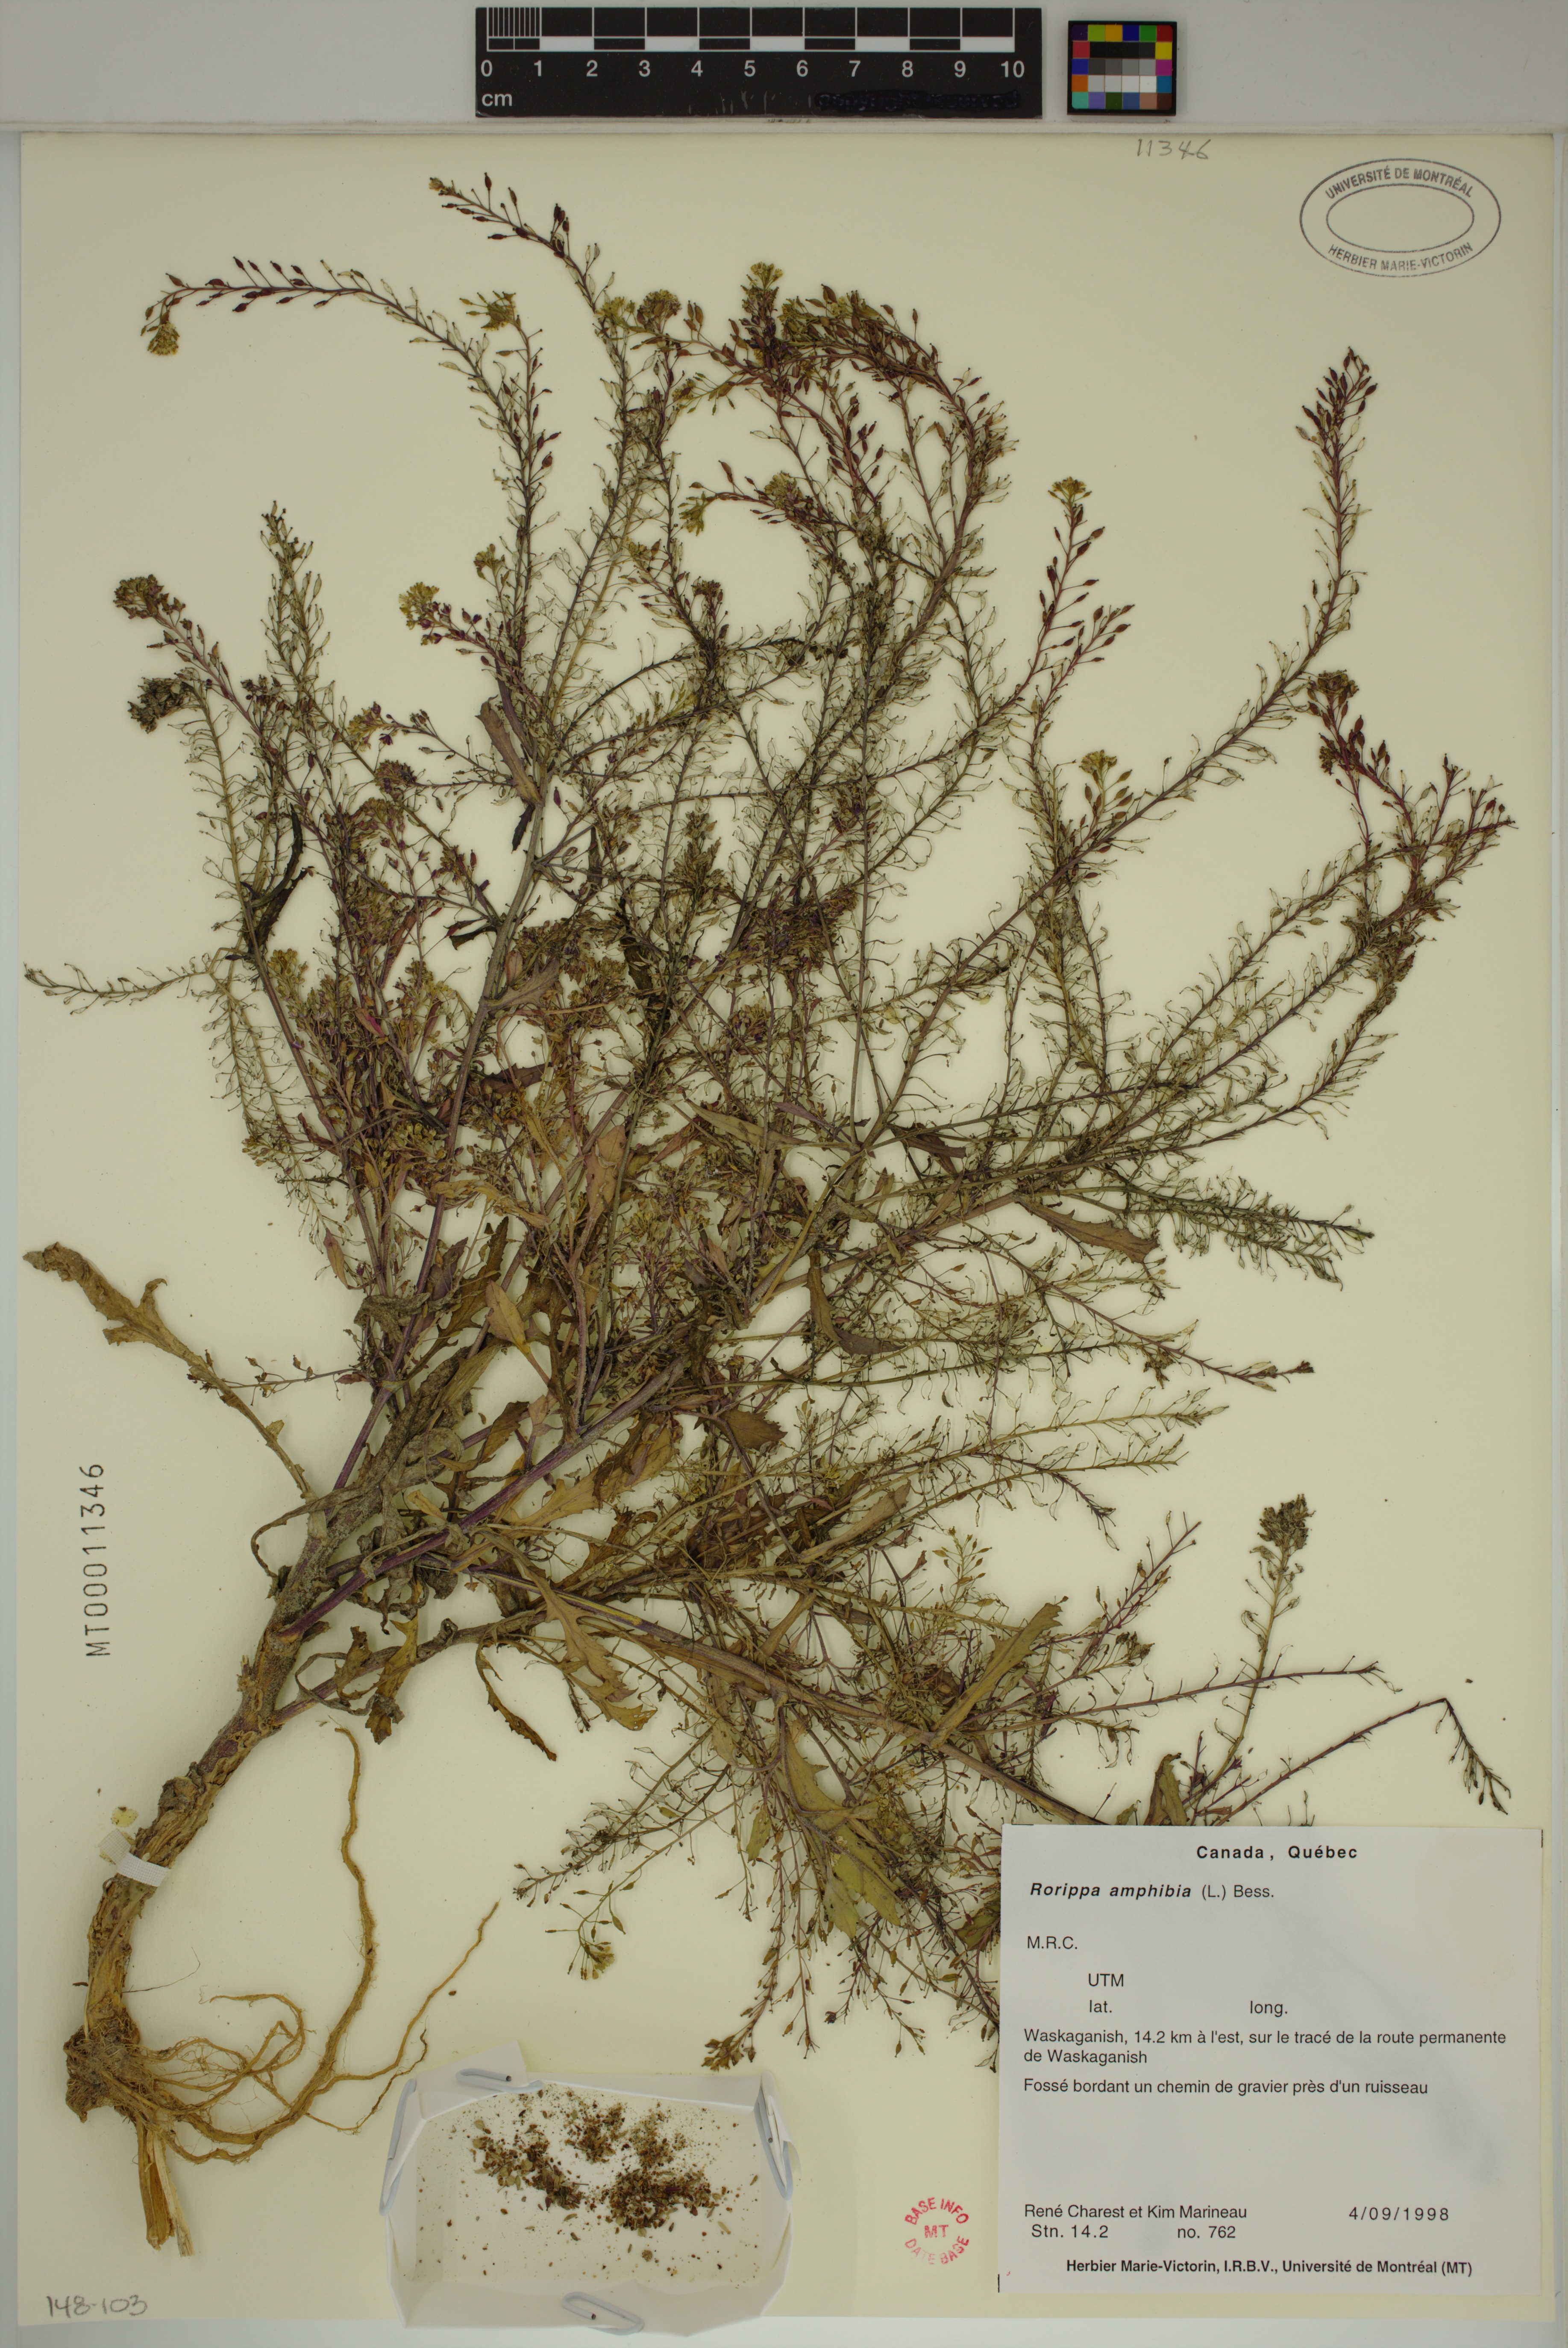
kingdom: Plantae
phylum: Tracheophyta
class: Magnoliopsida
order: Brassicales
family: Brassicaceae
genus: Rorippa
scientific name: Rorippa palustris
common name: Marsh yellow-cress
